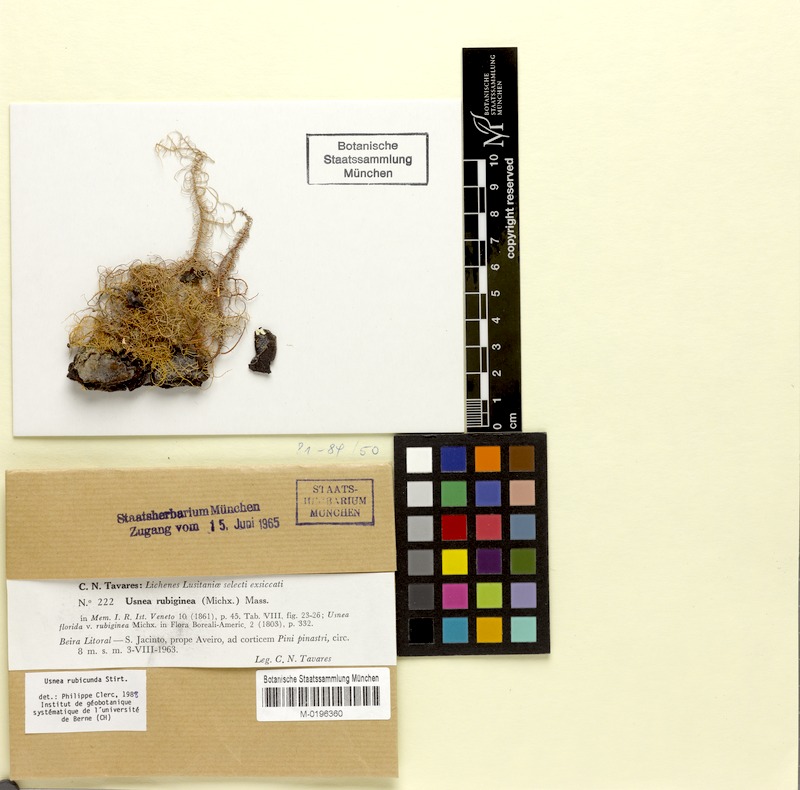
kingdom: Fungi
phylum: Ascomycota
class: Lecanoromycetes
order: Lecanorales
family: Parmeliaceae
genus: Usnea
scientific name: Usnea rubicunda
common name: Red beard lichen
